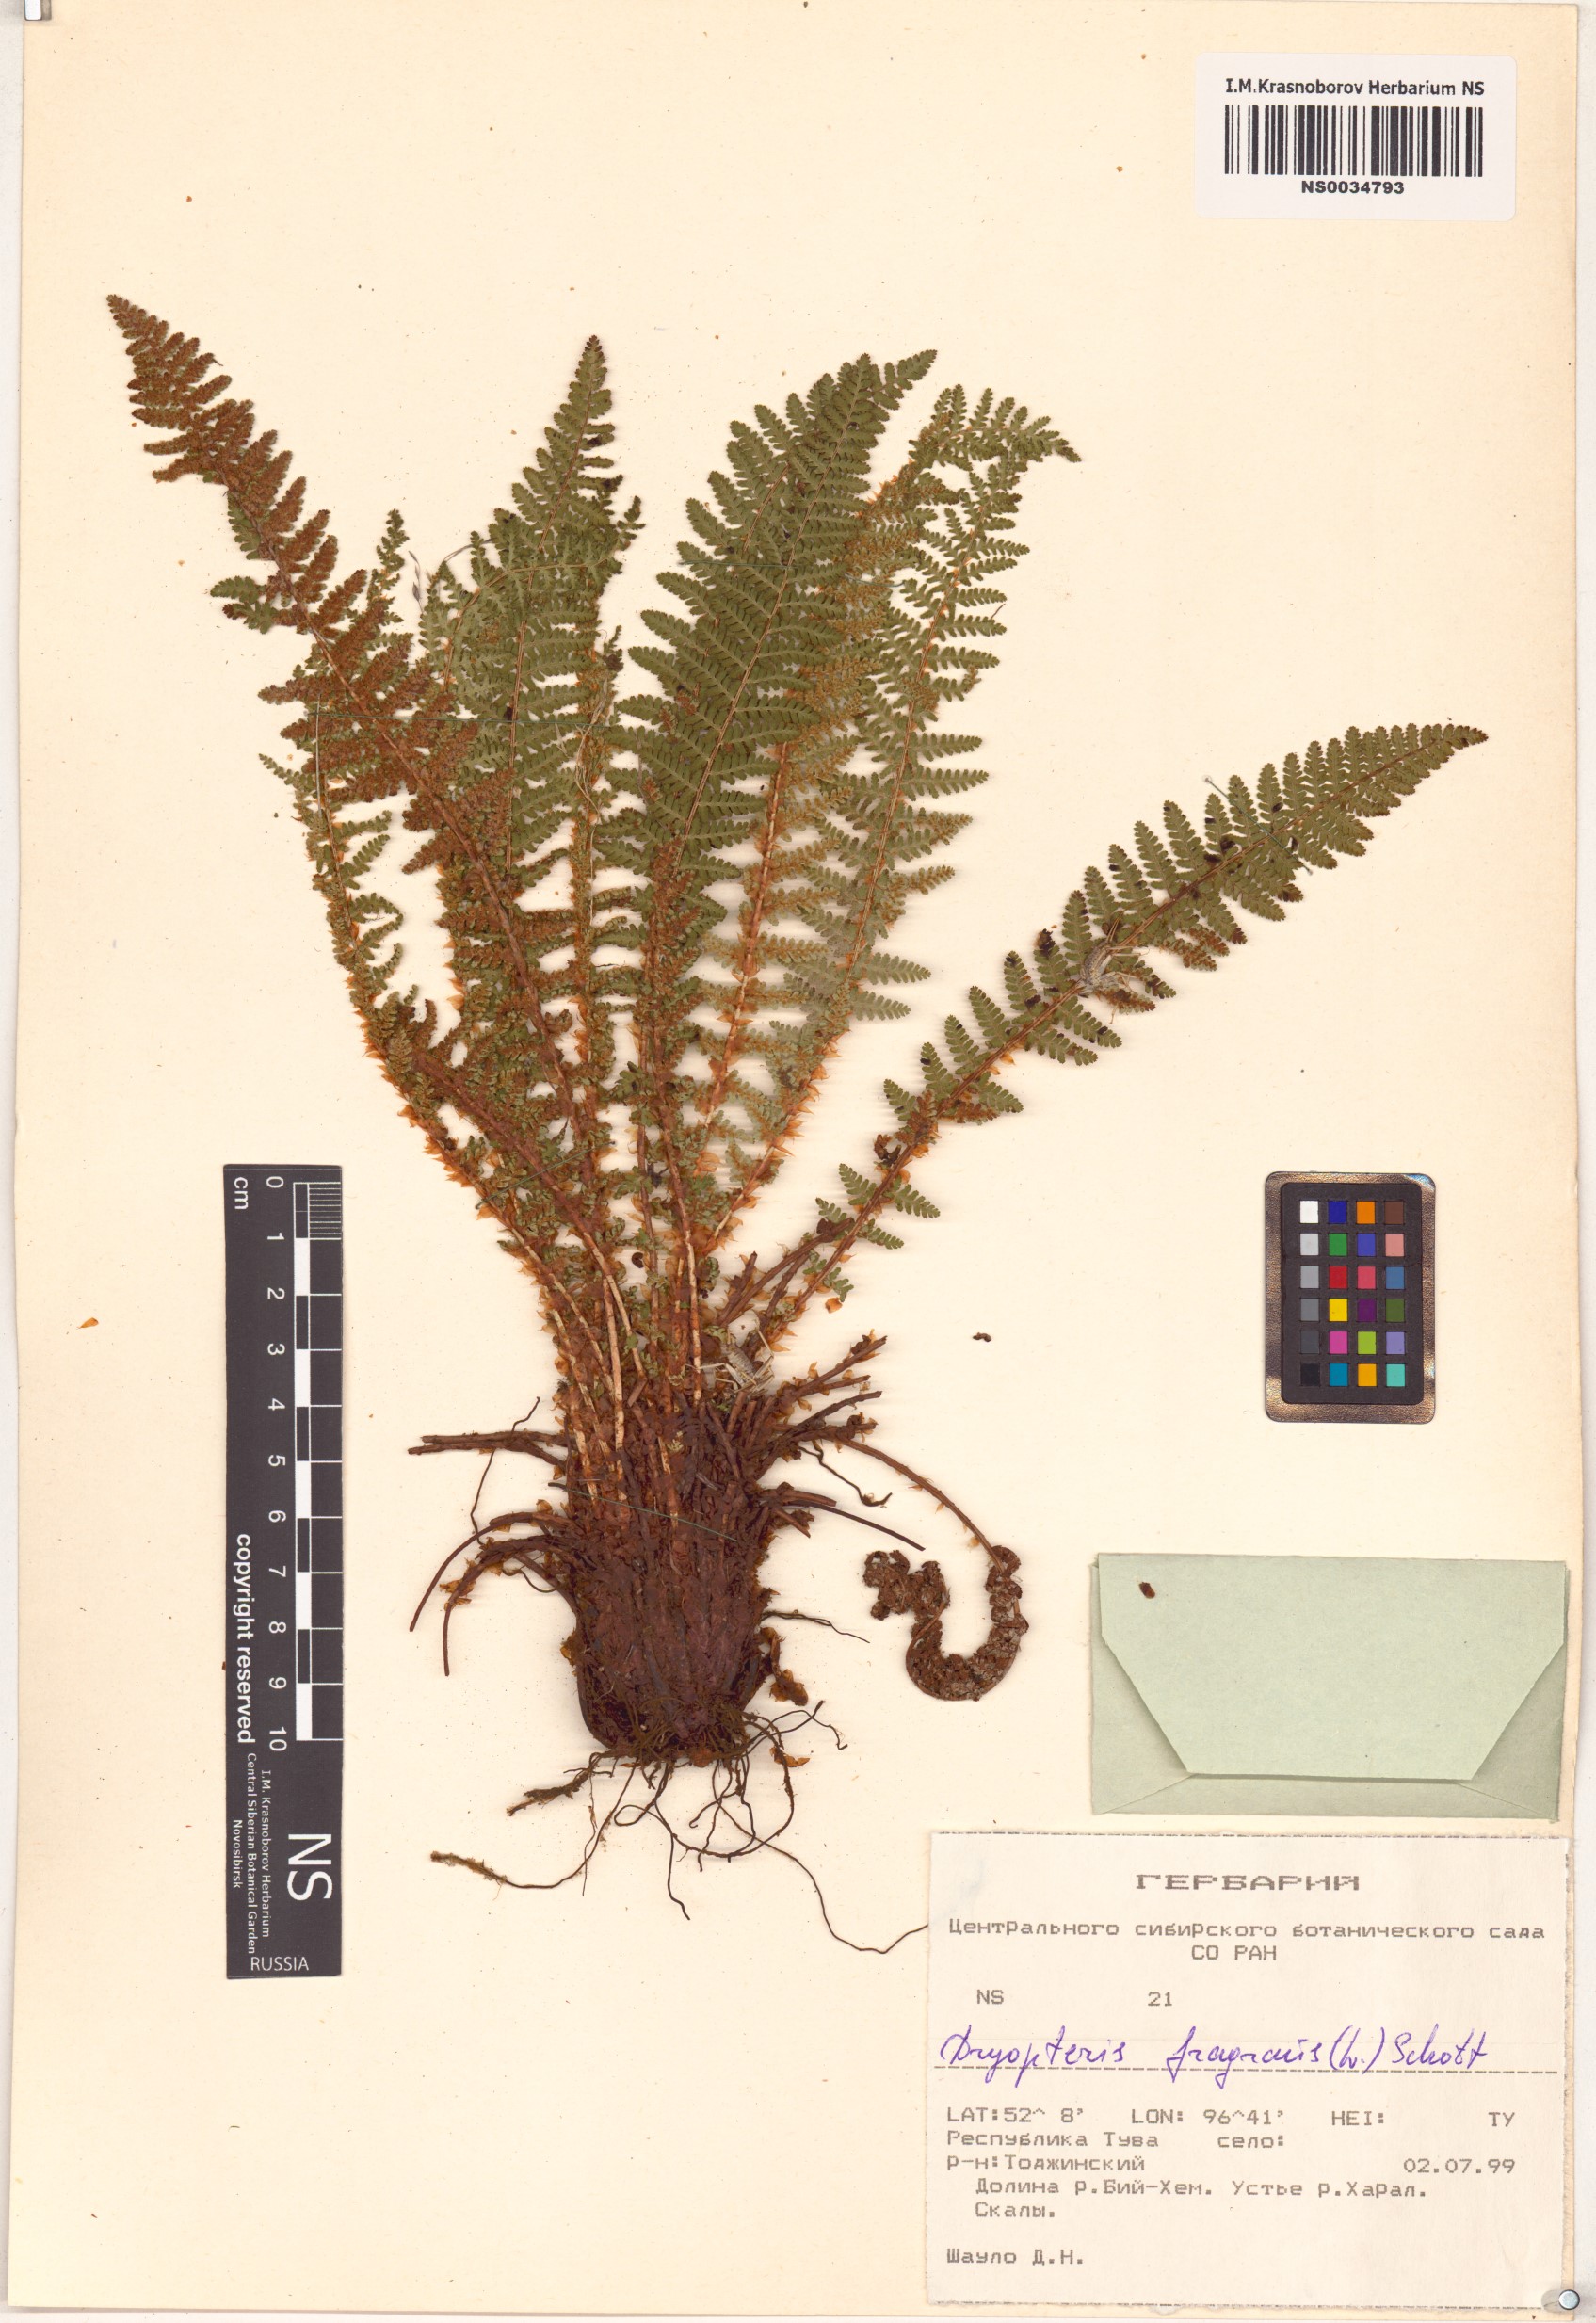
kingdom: Plantae
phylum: Tracheophyta
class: Polypodiopsida
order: Polypodiales
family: Dryopteridaceae
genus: Dryopteris
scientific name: Dryopteris fragrans
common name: Fragrant wood fern
